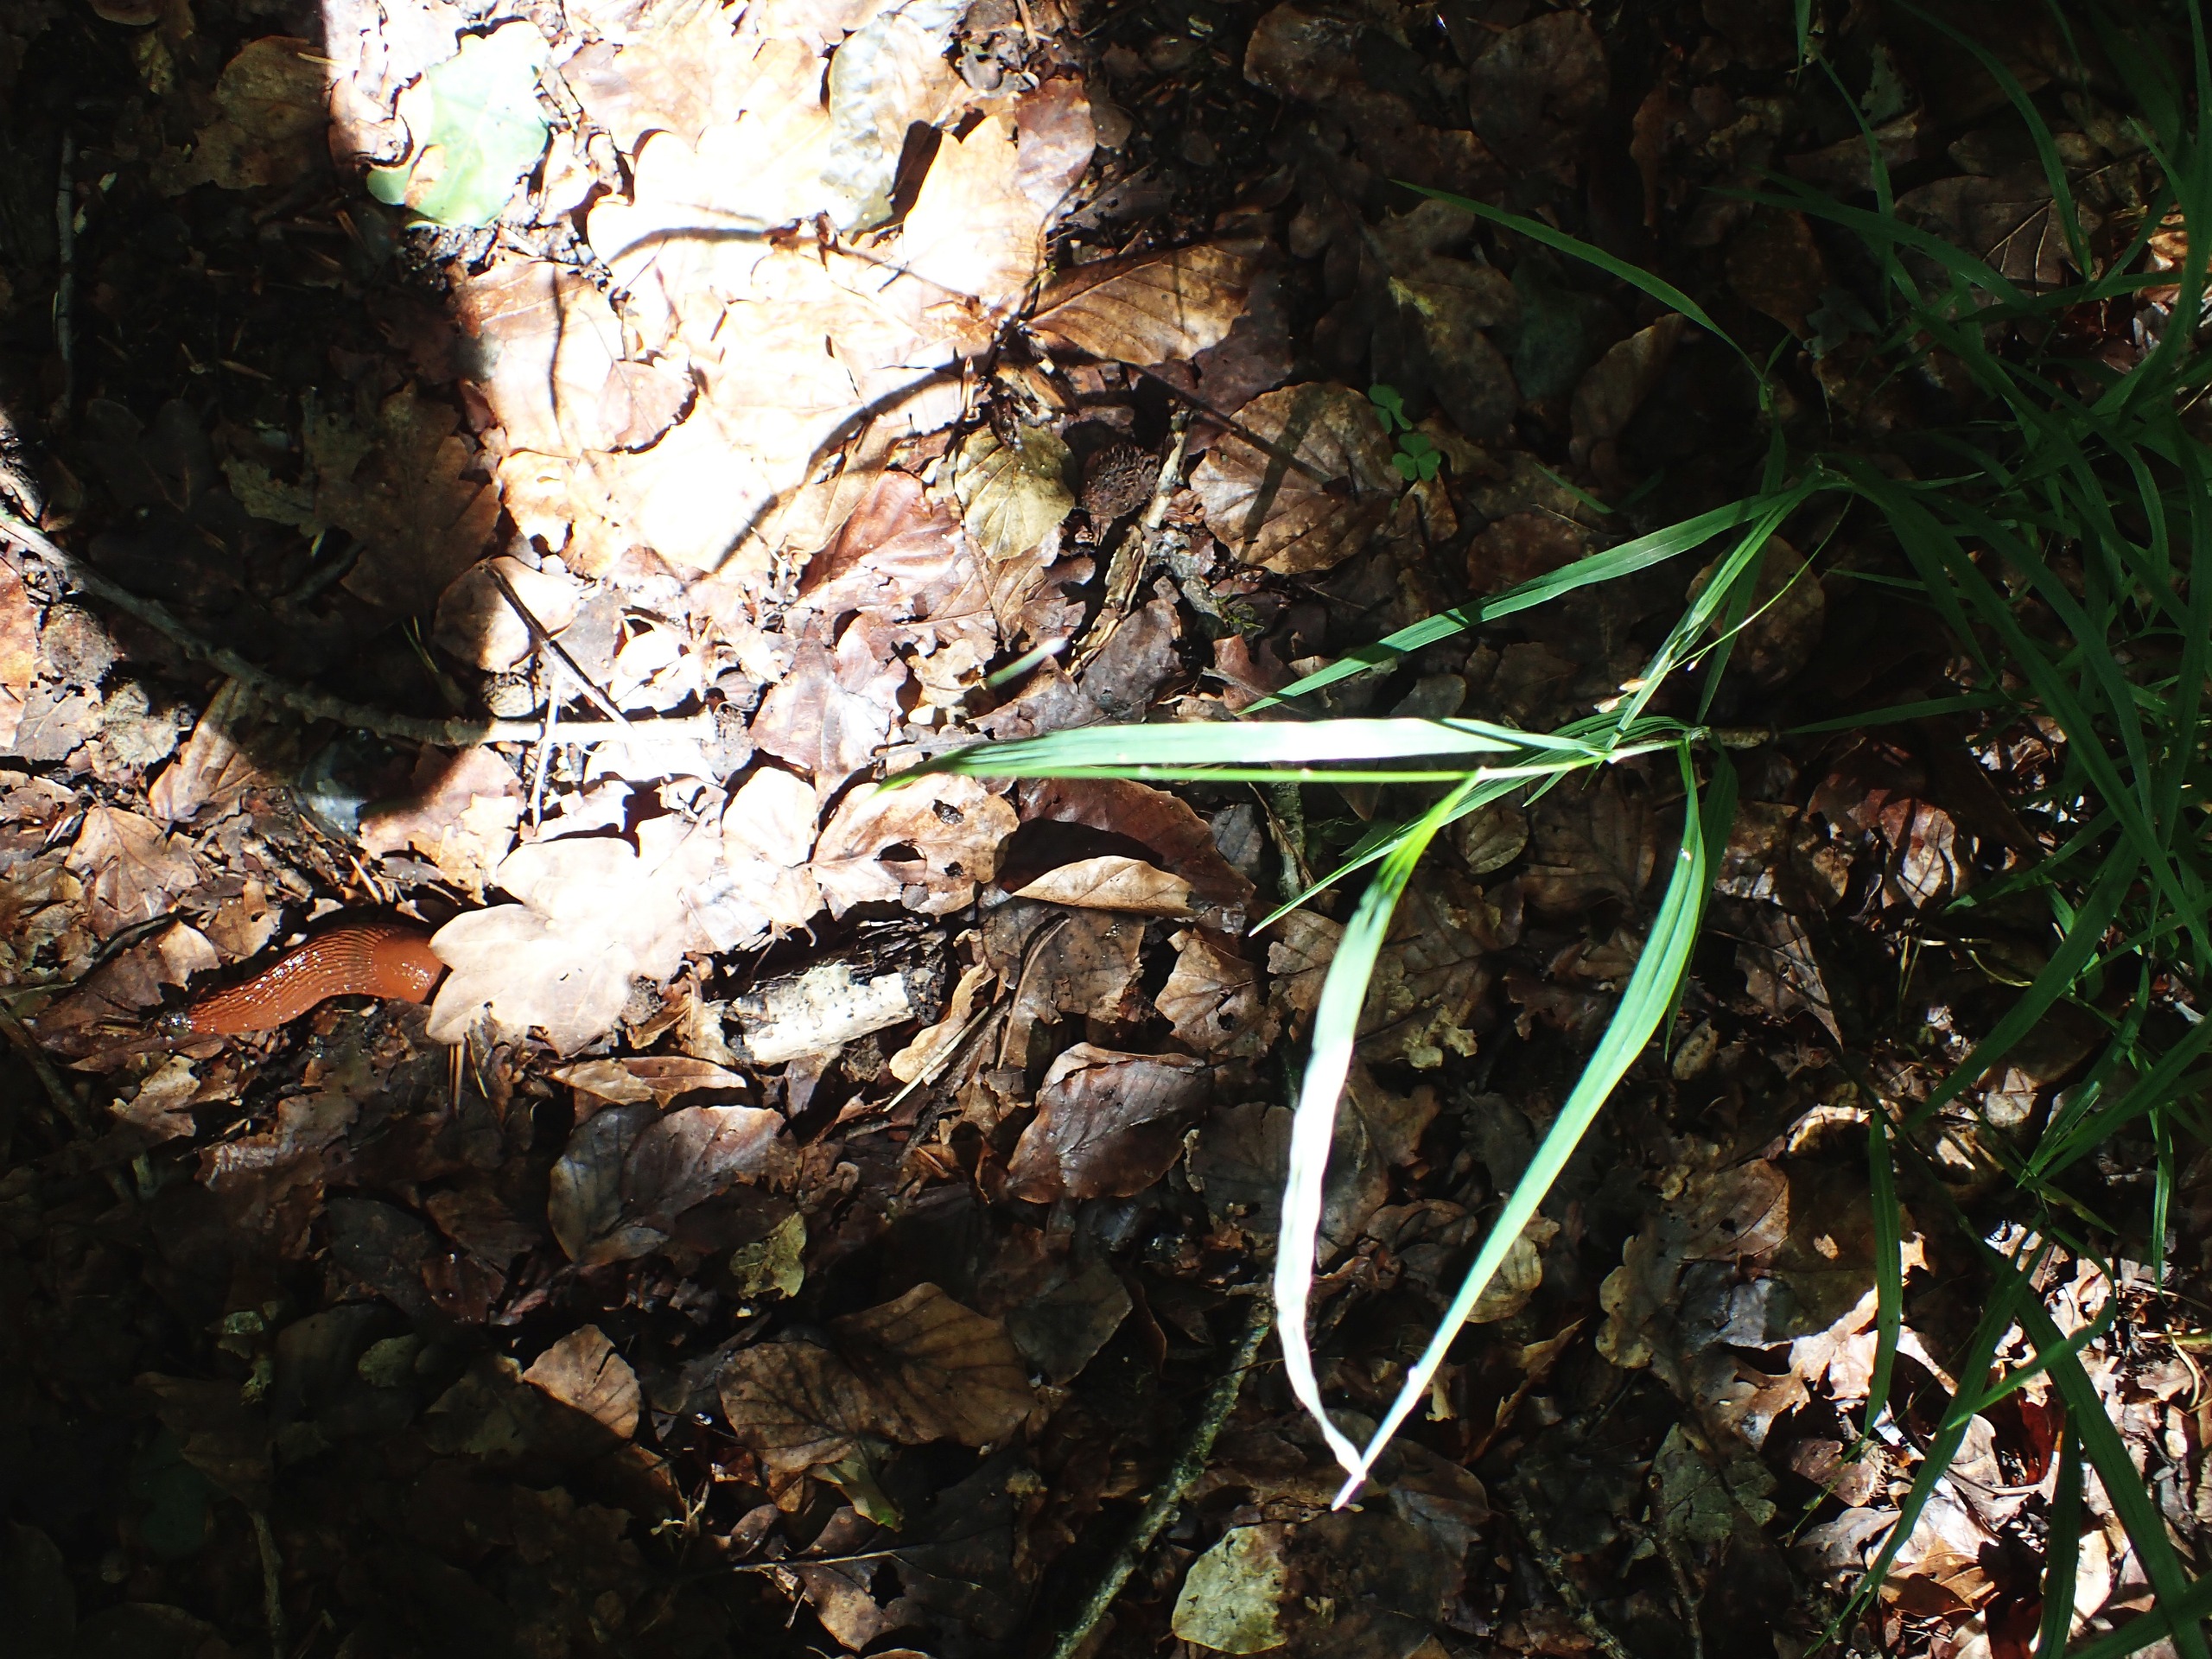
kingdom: Plantae
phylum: Tracheophyta
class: Liliopsida
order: Poales
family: Poaceae
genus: Melica
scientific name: Melica uniflora
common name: Enblomstret flitteraks
